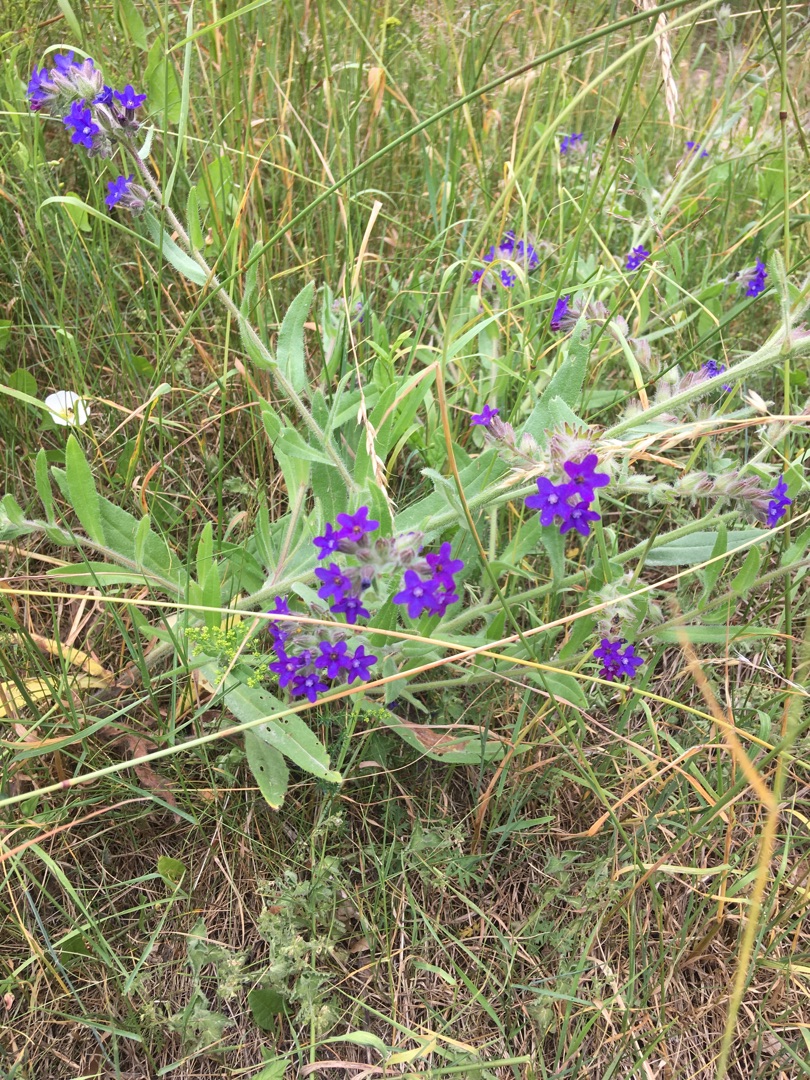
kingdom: Plantae
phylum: Tracheophyta
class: Magnoliopsida
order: Boraginales
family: Boraginaceae
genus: Anchusa
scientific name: Anchusa officinalis
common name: Læge-oksetunge
